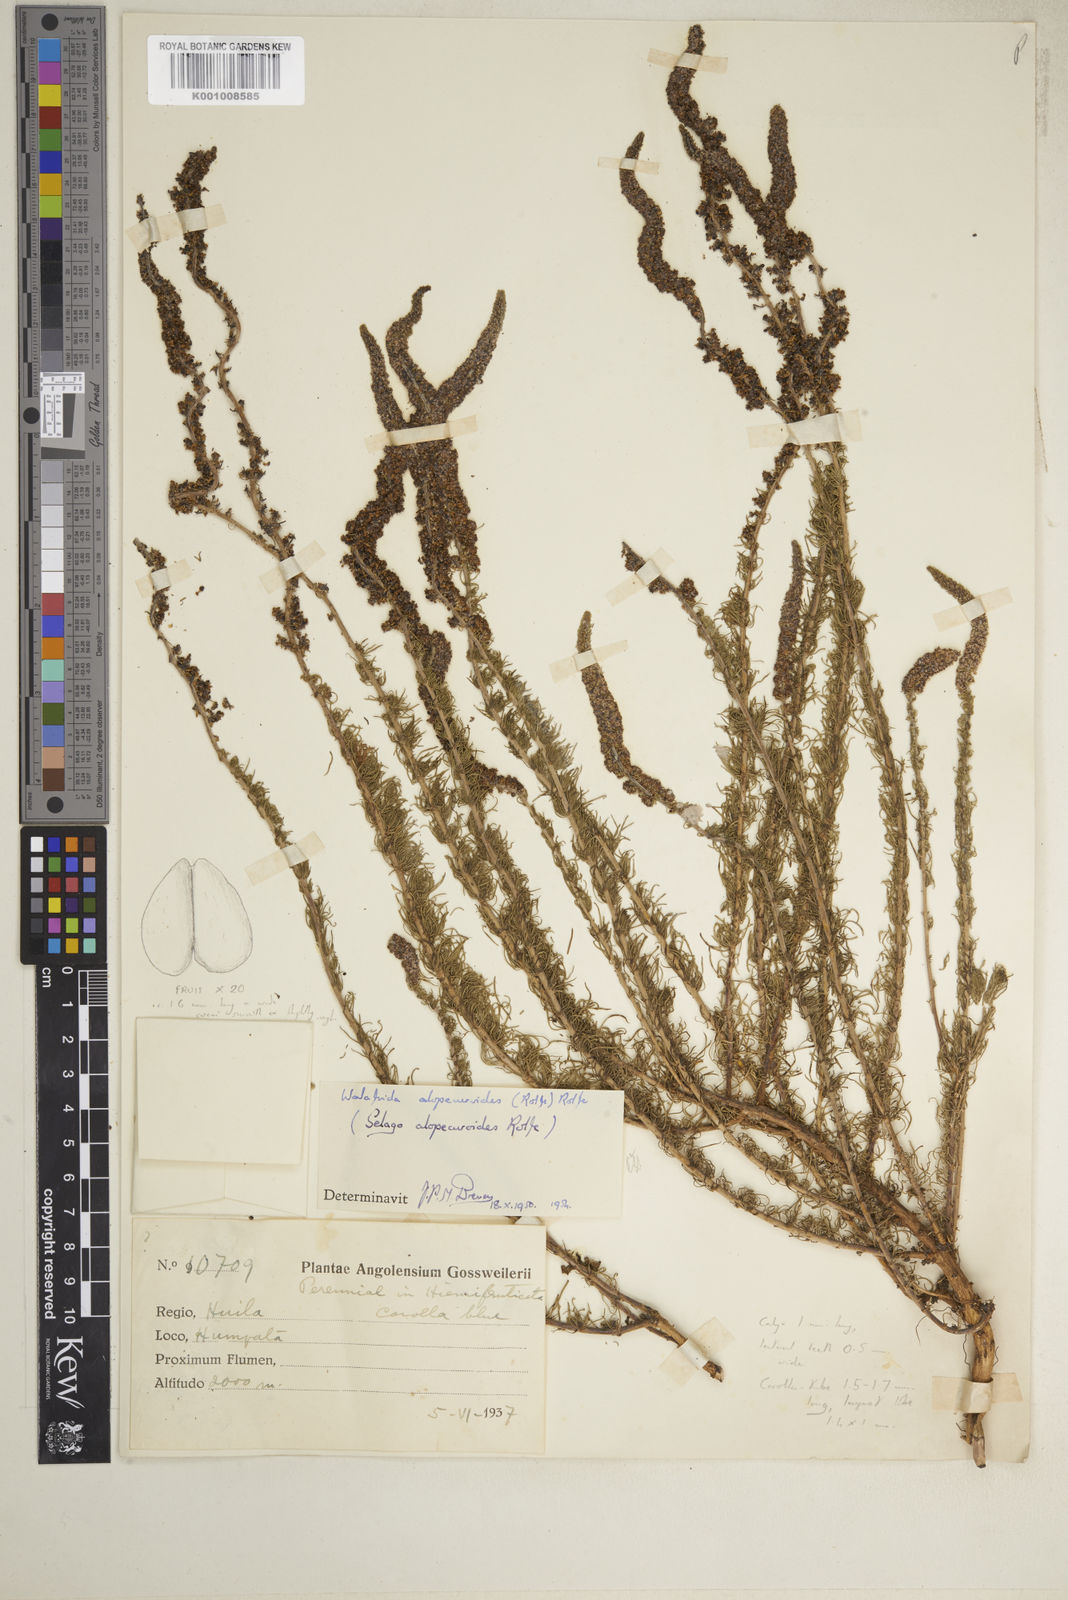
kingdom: Plantae
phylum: Tracheophyta
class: Magnoliopsida
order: Lamiales
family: Scrophulariaceae
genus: Selago
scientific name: Selago alopecuroides
